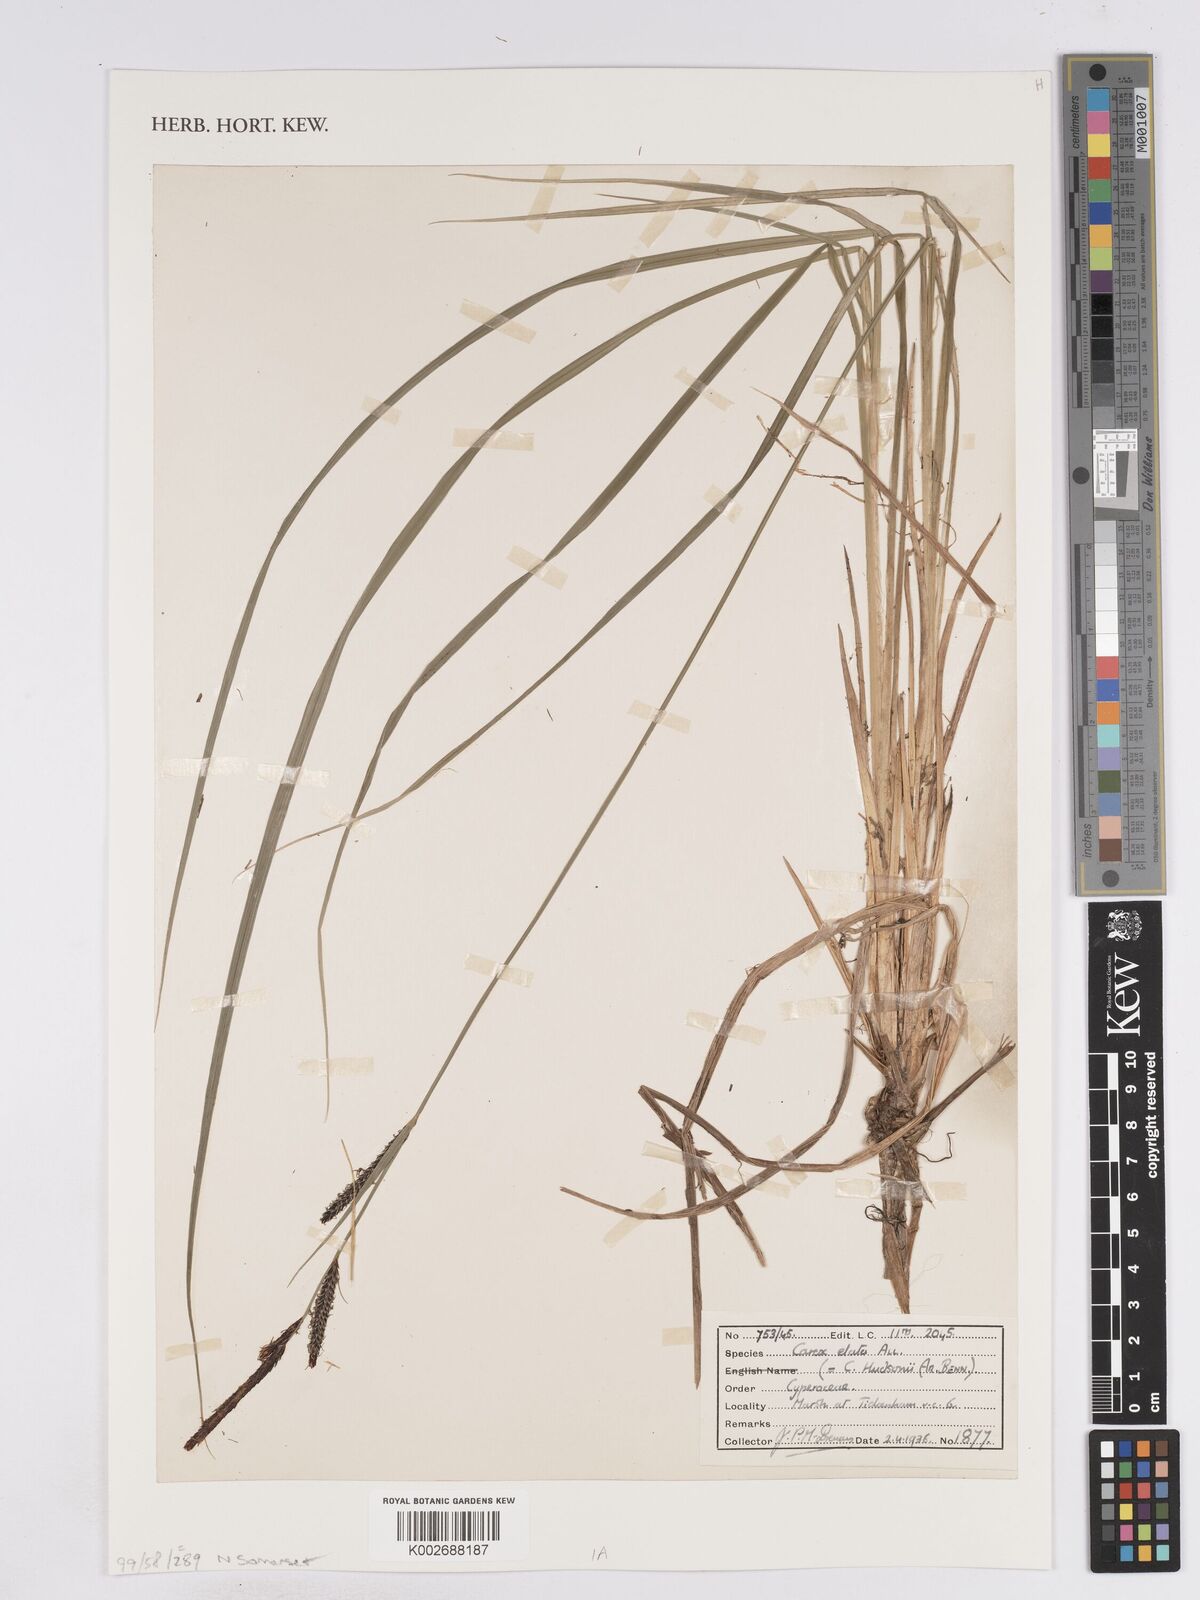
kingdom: Plantae
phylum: Tracheophyta
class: Liliopsida
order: Poales
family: Cyperaceae
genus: Carex
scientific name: Carex elata
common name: Tufted sedge
